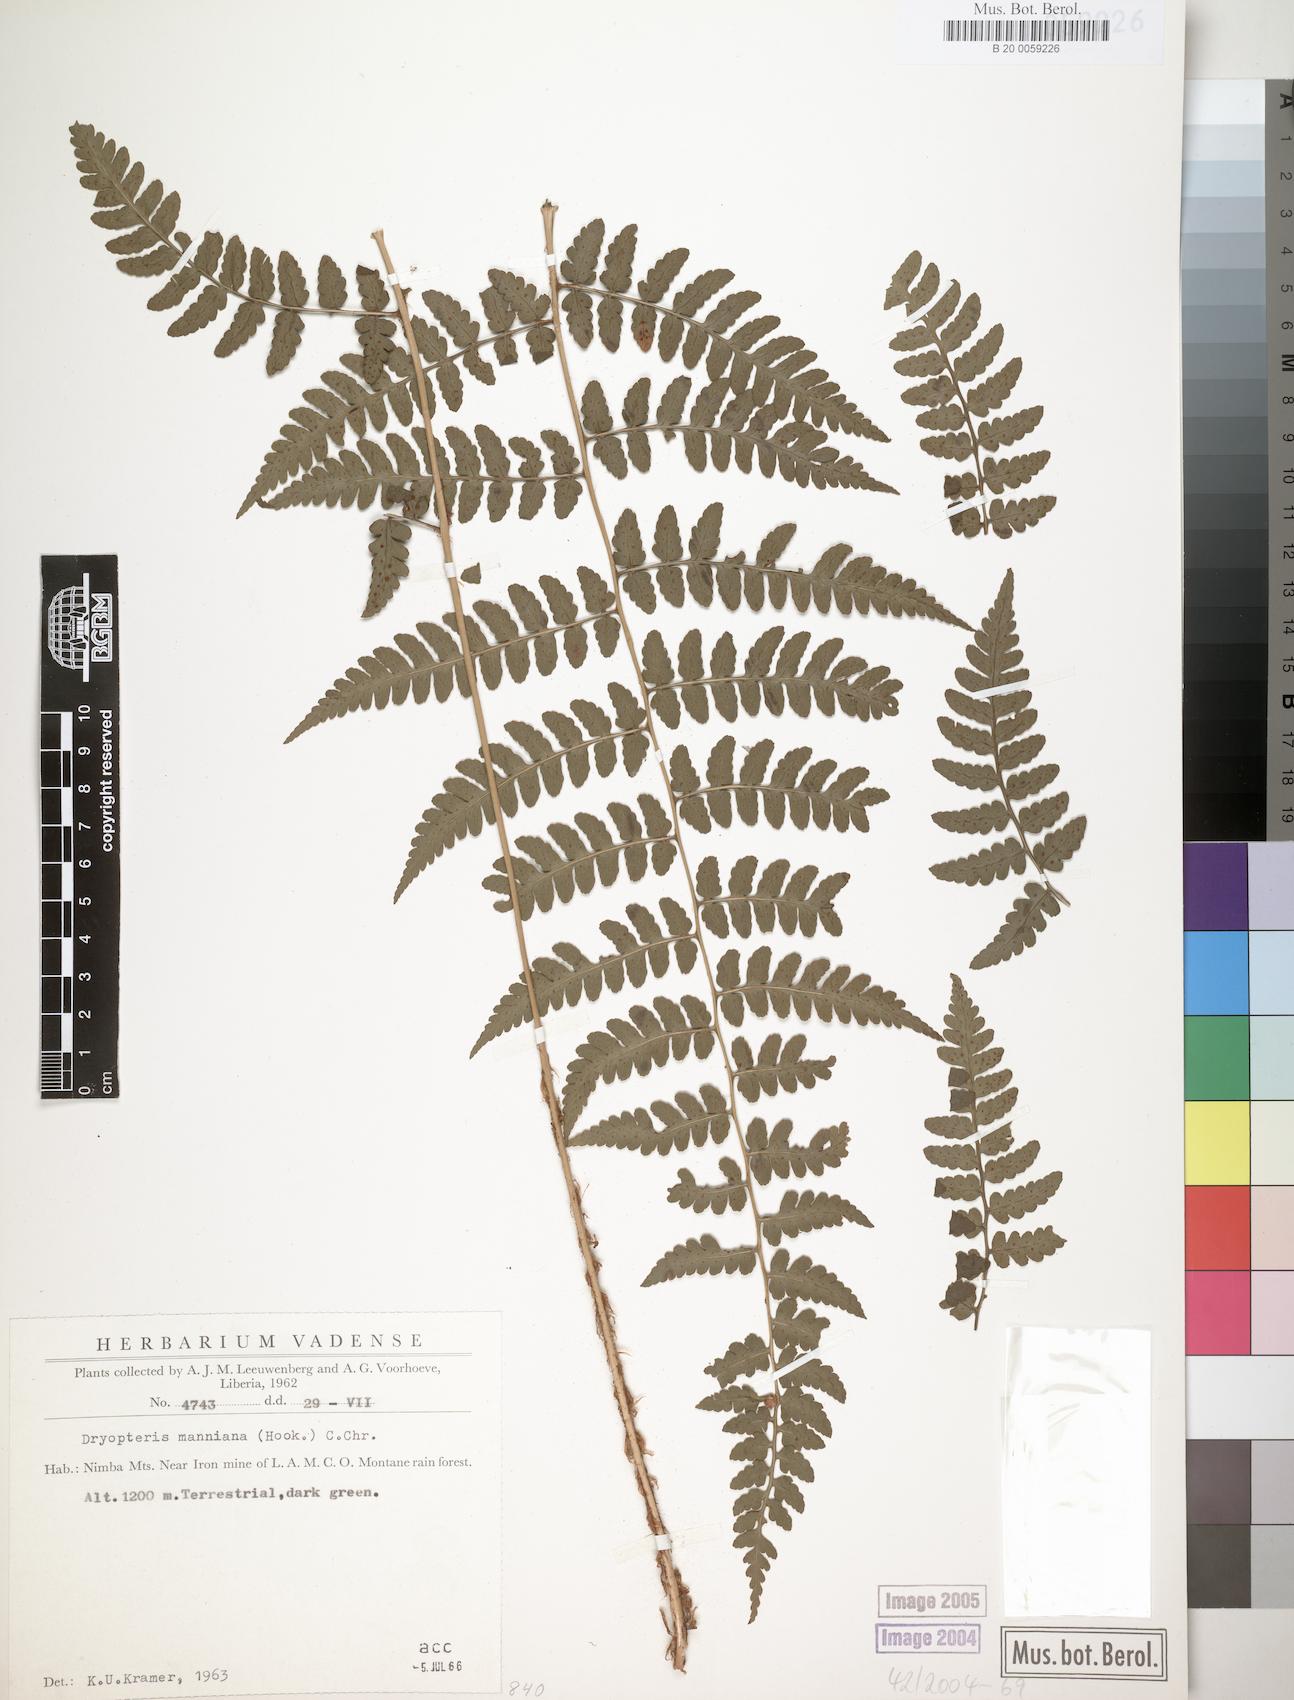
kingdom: Plantae
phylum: Tracheophyta
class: Polypodiopsida
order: Polypodiales
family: Dryopteridaceae
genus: Dryopteris
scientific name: Dryopteris manniana
